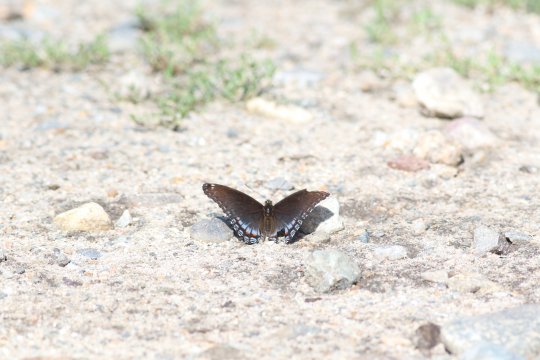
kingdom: Animalia
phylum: Arthropoda
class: Insecta
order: Lepidoptera
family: Nymphalidae
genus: Limenitis
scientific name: Limenitis arthemis
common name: Red-spotted Admiral
